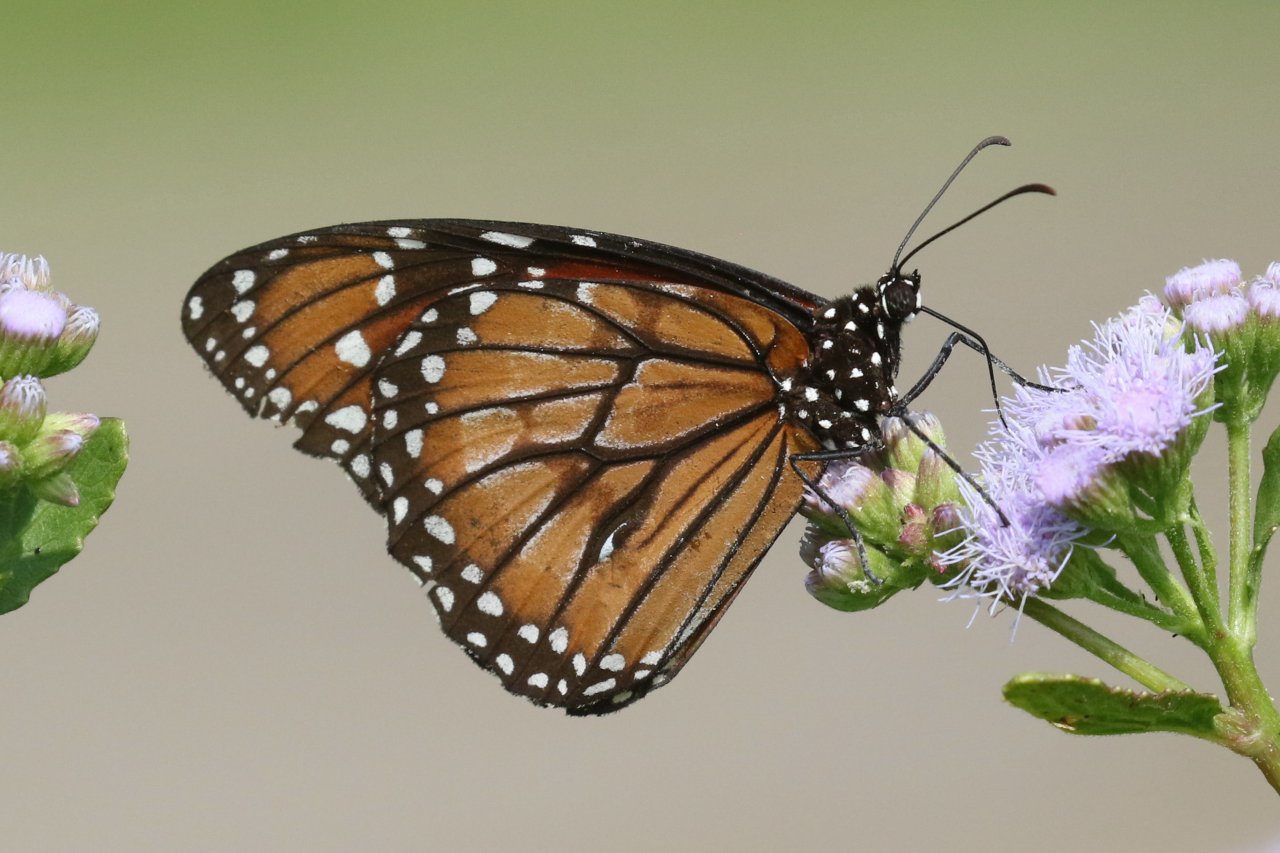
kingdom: Animalia
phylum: Arthropoda
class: Insecta
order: Lepidoptera
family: Nymphalidae
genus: Danaus
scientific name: Danaus eresimus
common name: Soldier
